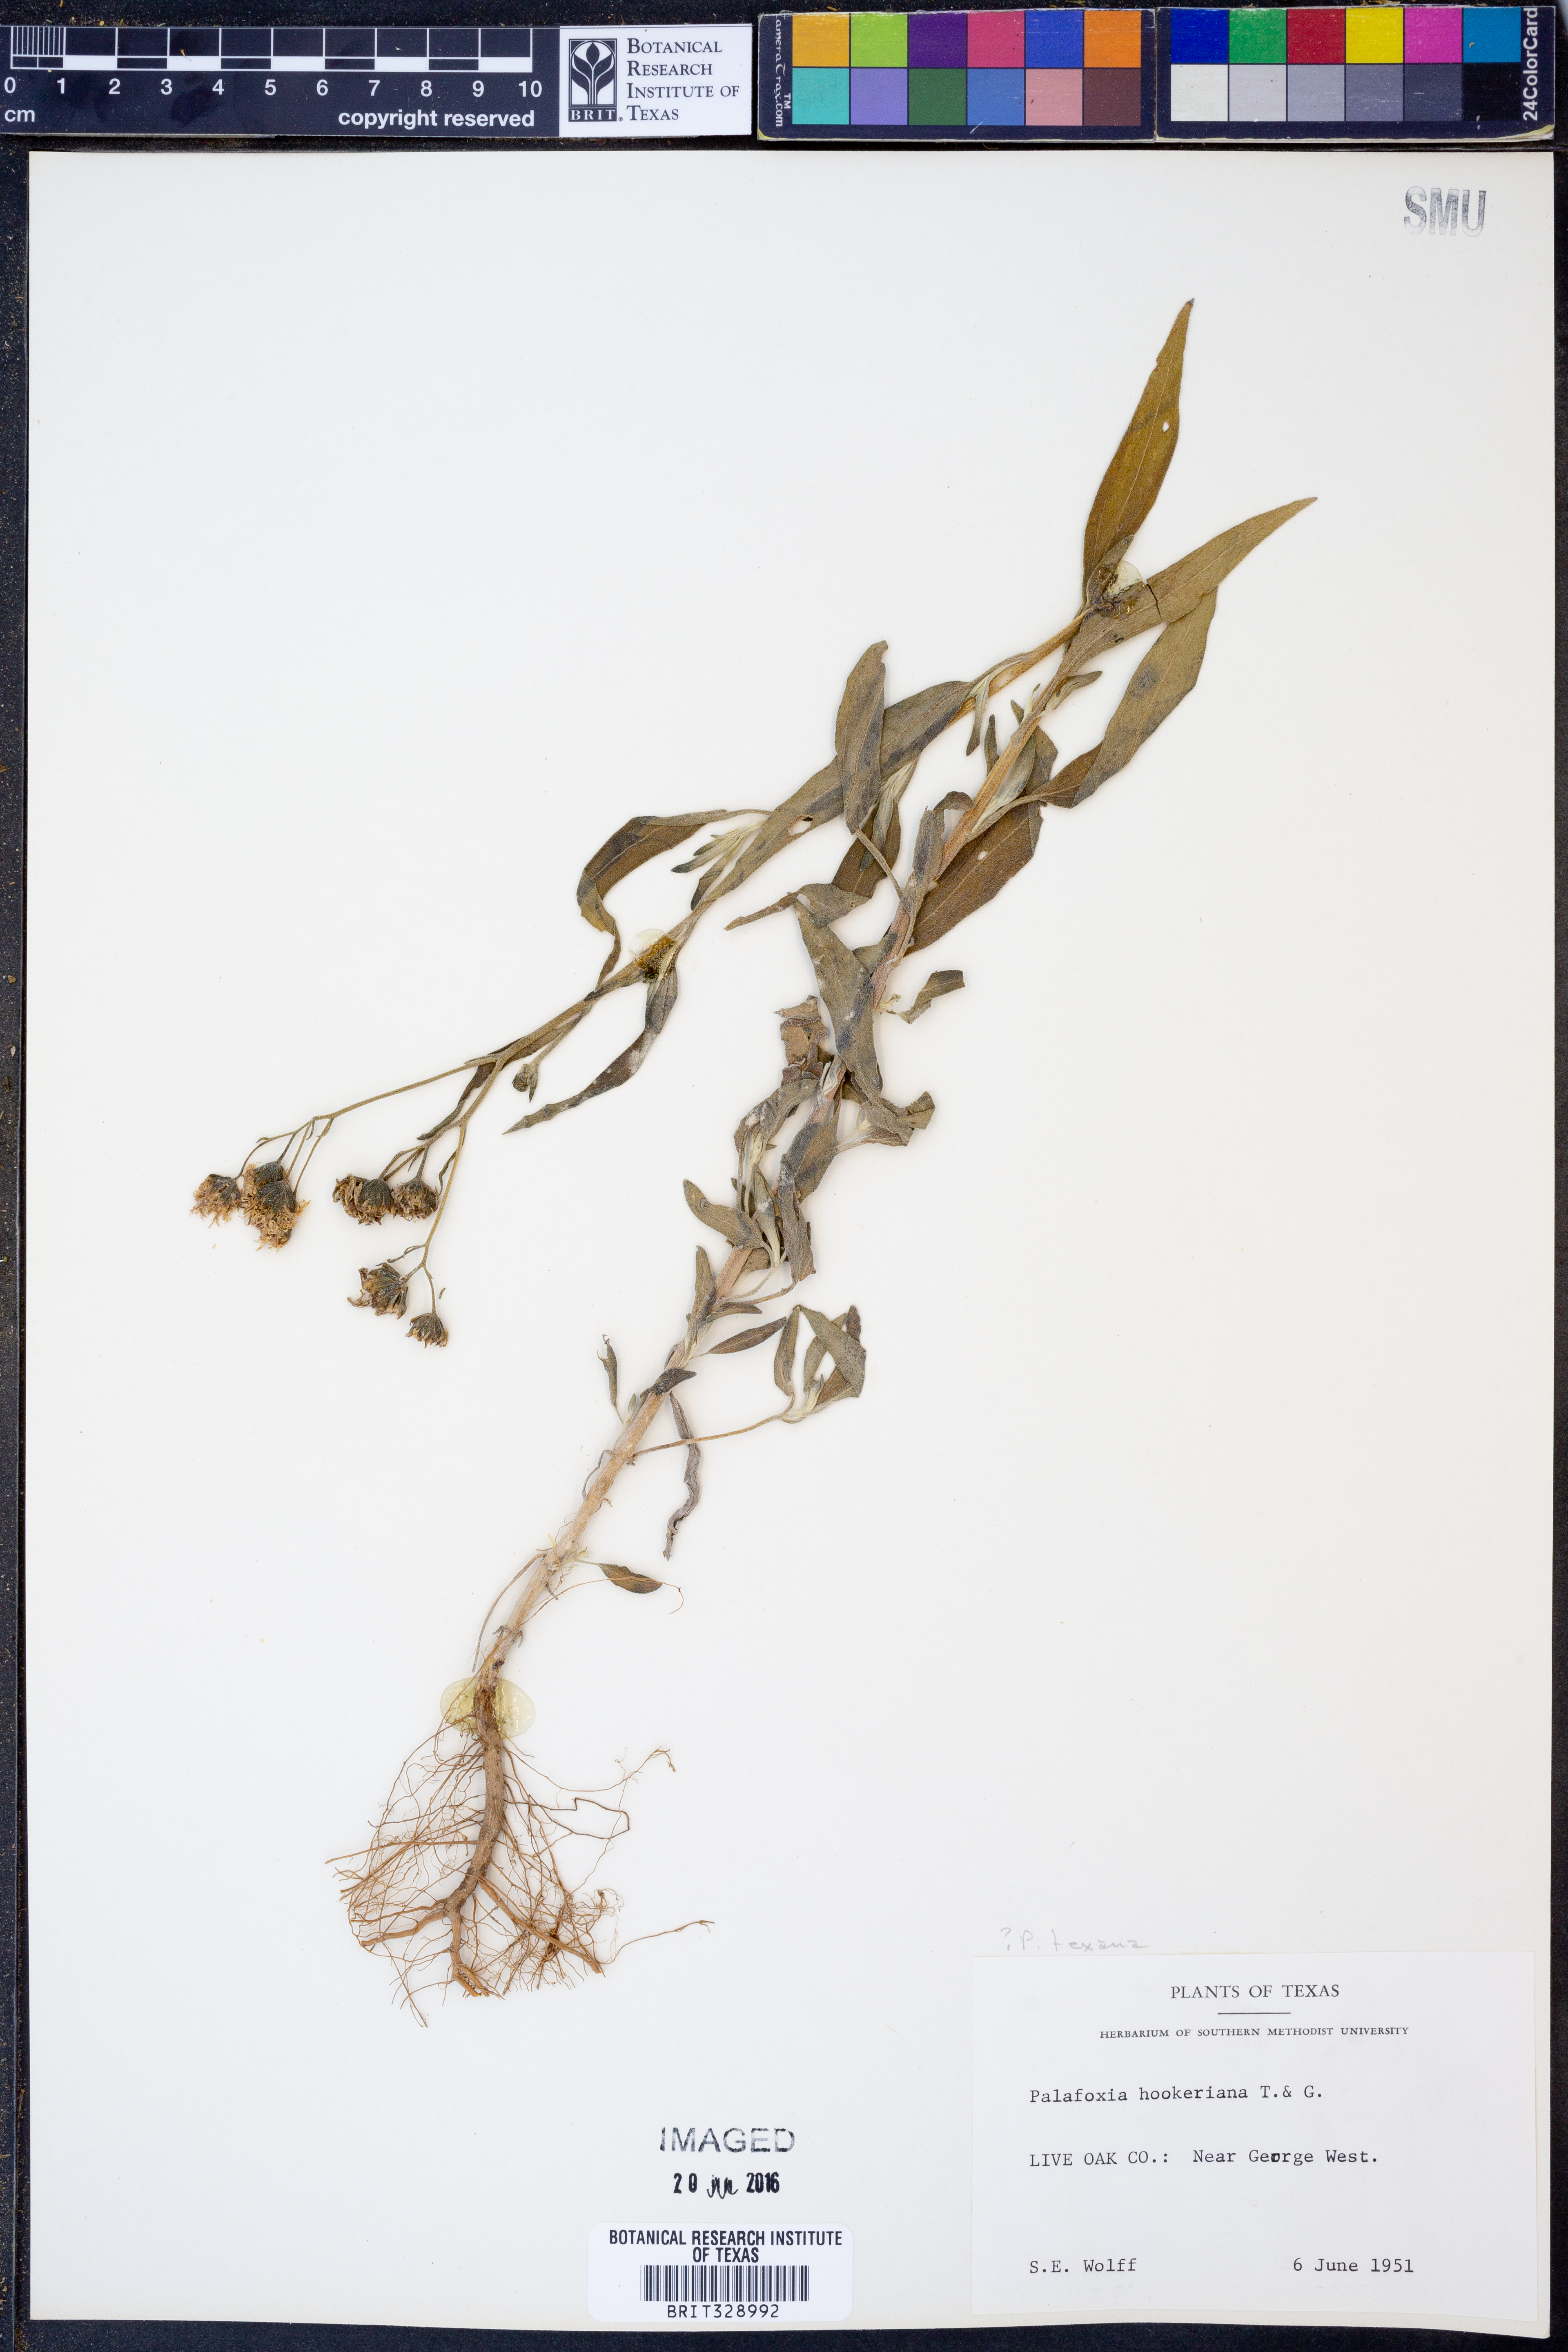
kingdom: Plantae
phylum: Tracheophyta
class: Magnoliopsida
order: Asterales
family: Asteraceae
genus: Palafoxia
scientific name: Palafoxia hookeriana
